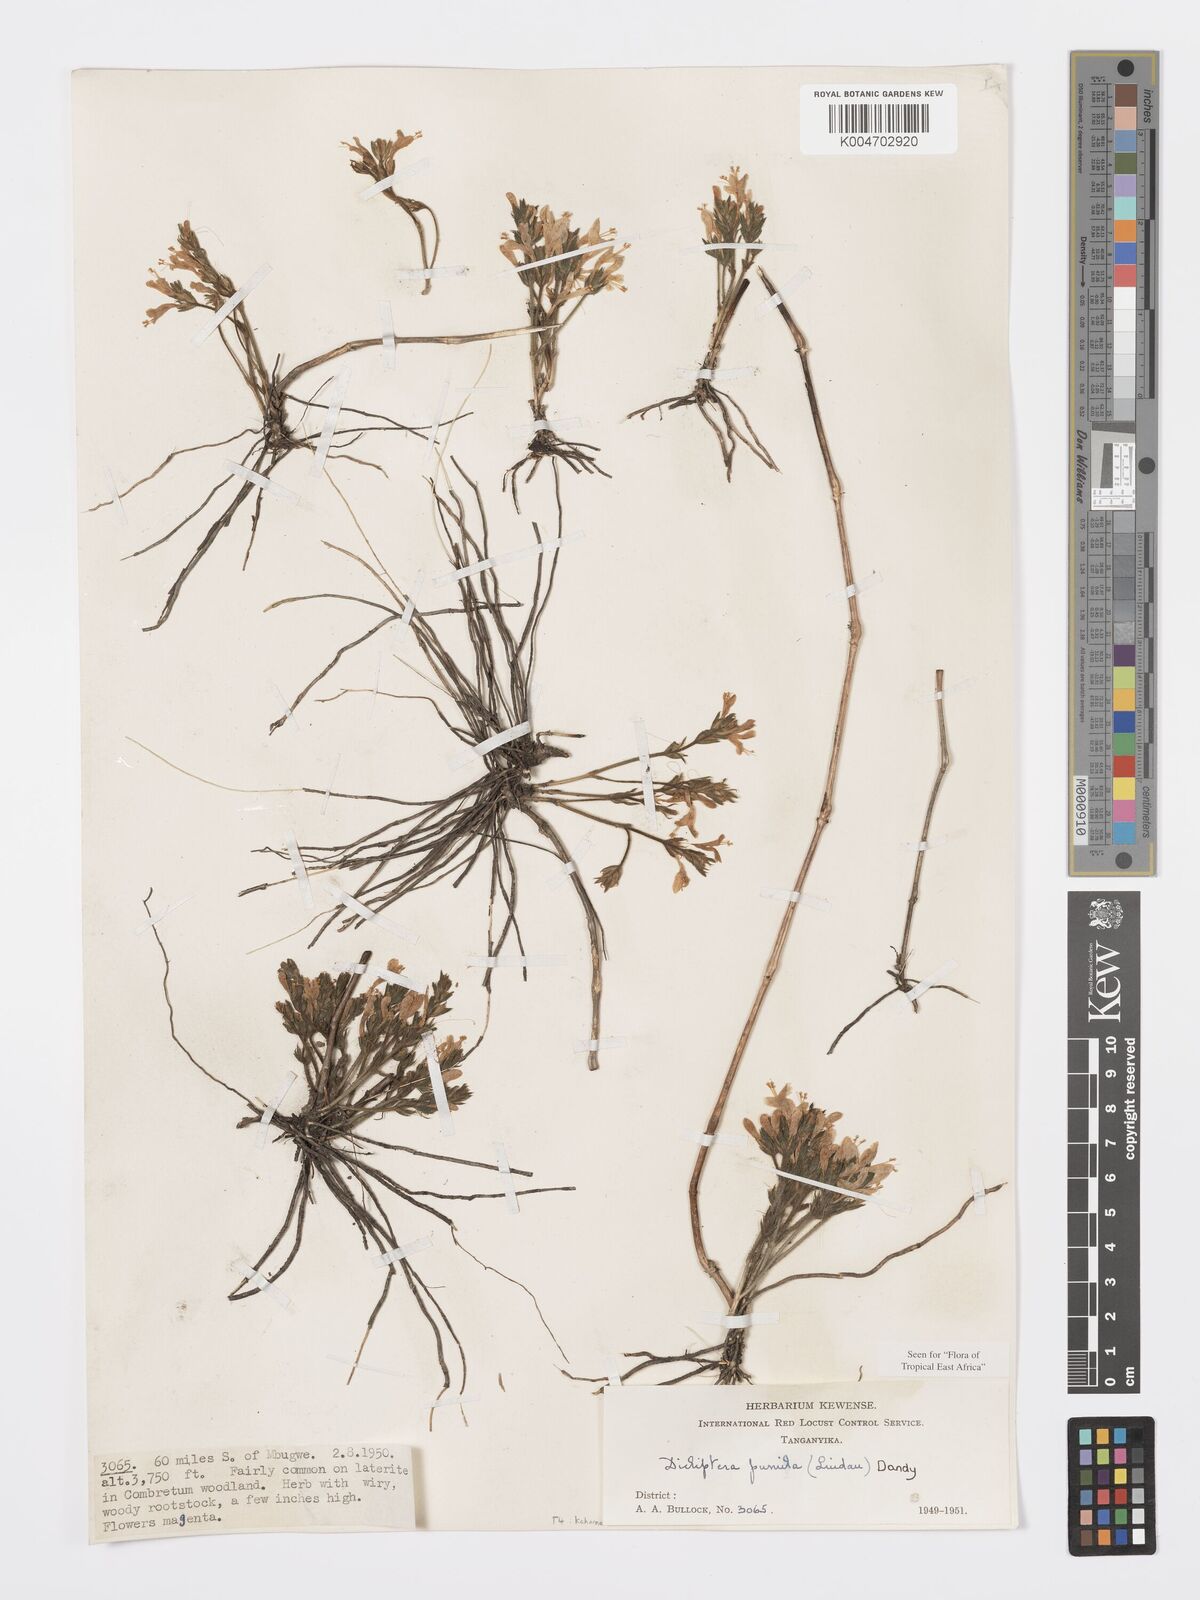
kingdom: Plantae
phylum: Tracheophyta
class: Magnoliopsida
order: Lamiales
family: Acanthaceae
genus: Dicliptera
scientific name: Dicliptera pumila
